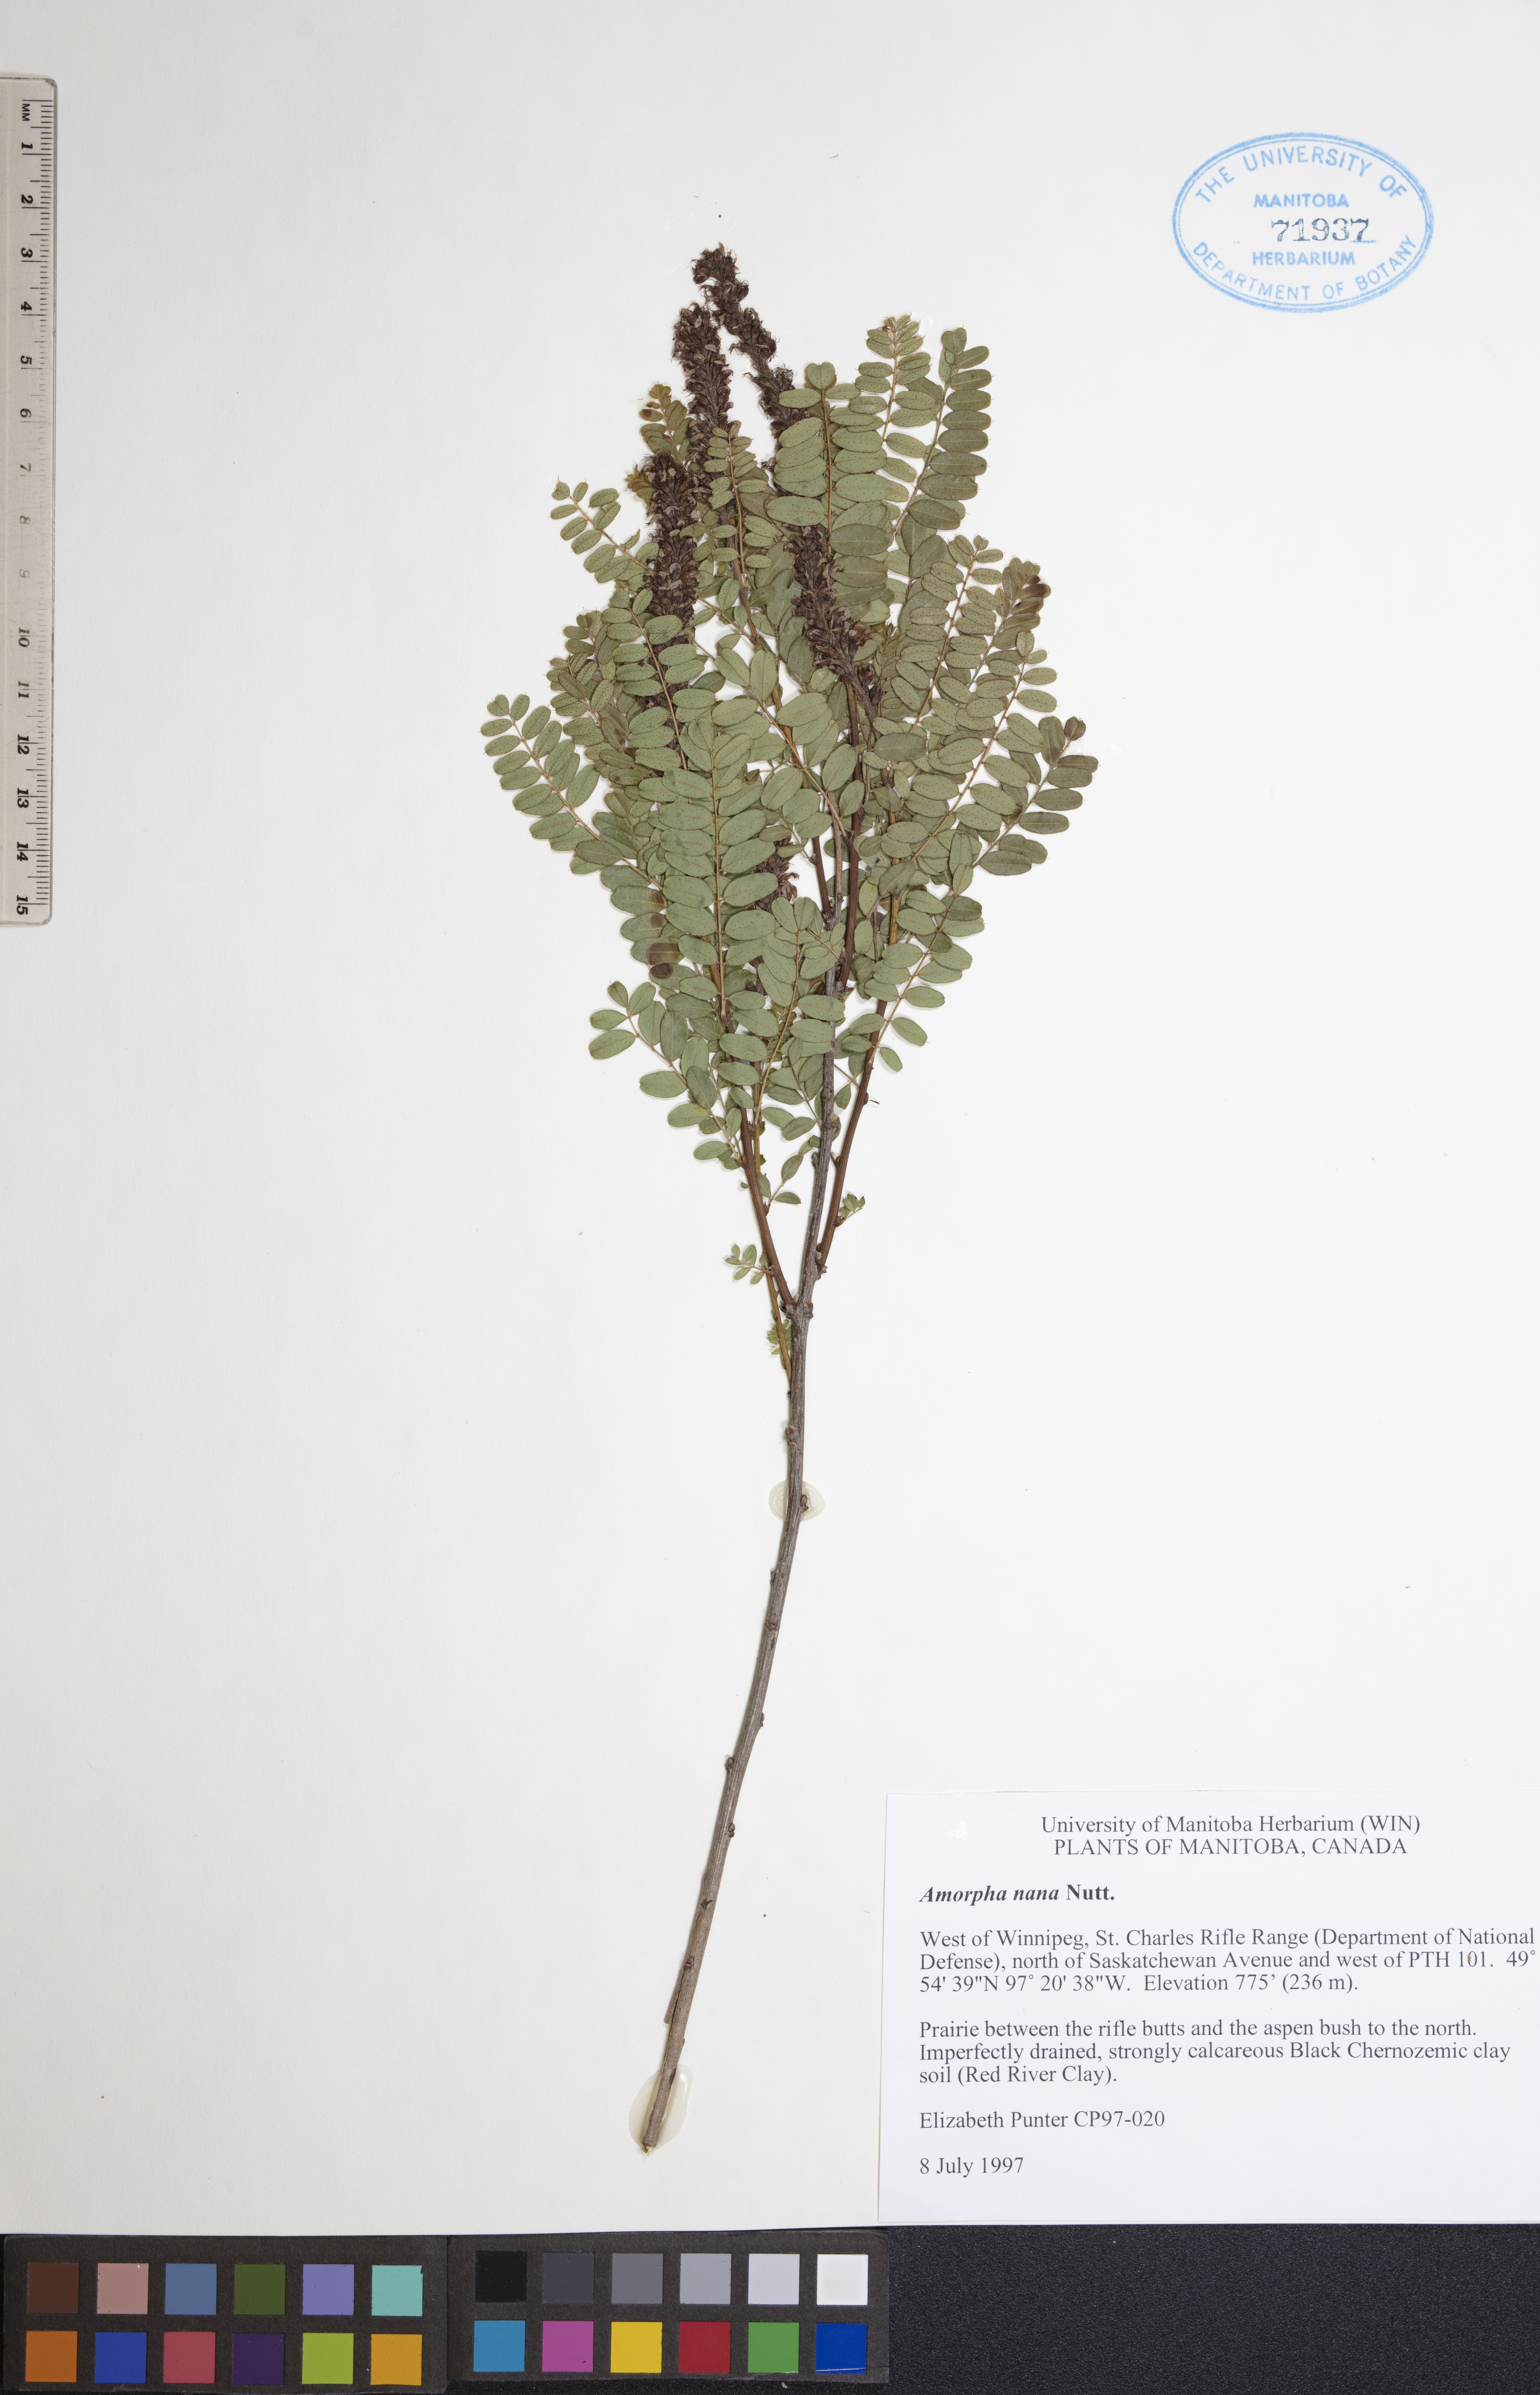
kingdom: Plantae
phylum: Tracheophyta
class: Magnoliopsida
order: Fabales
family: Fabaceae
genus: Amorpha
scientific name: Amorpha nana
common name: Fragrant false indigo
